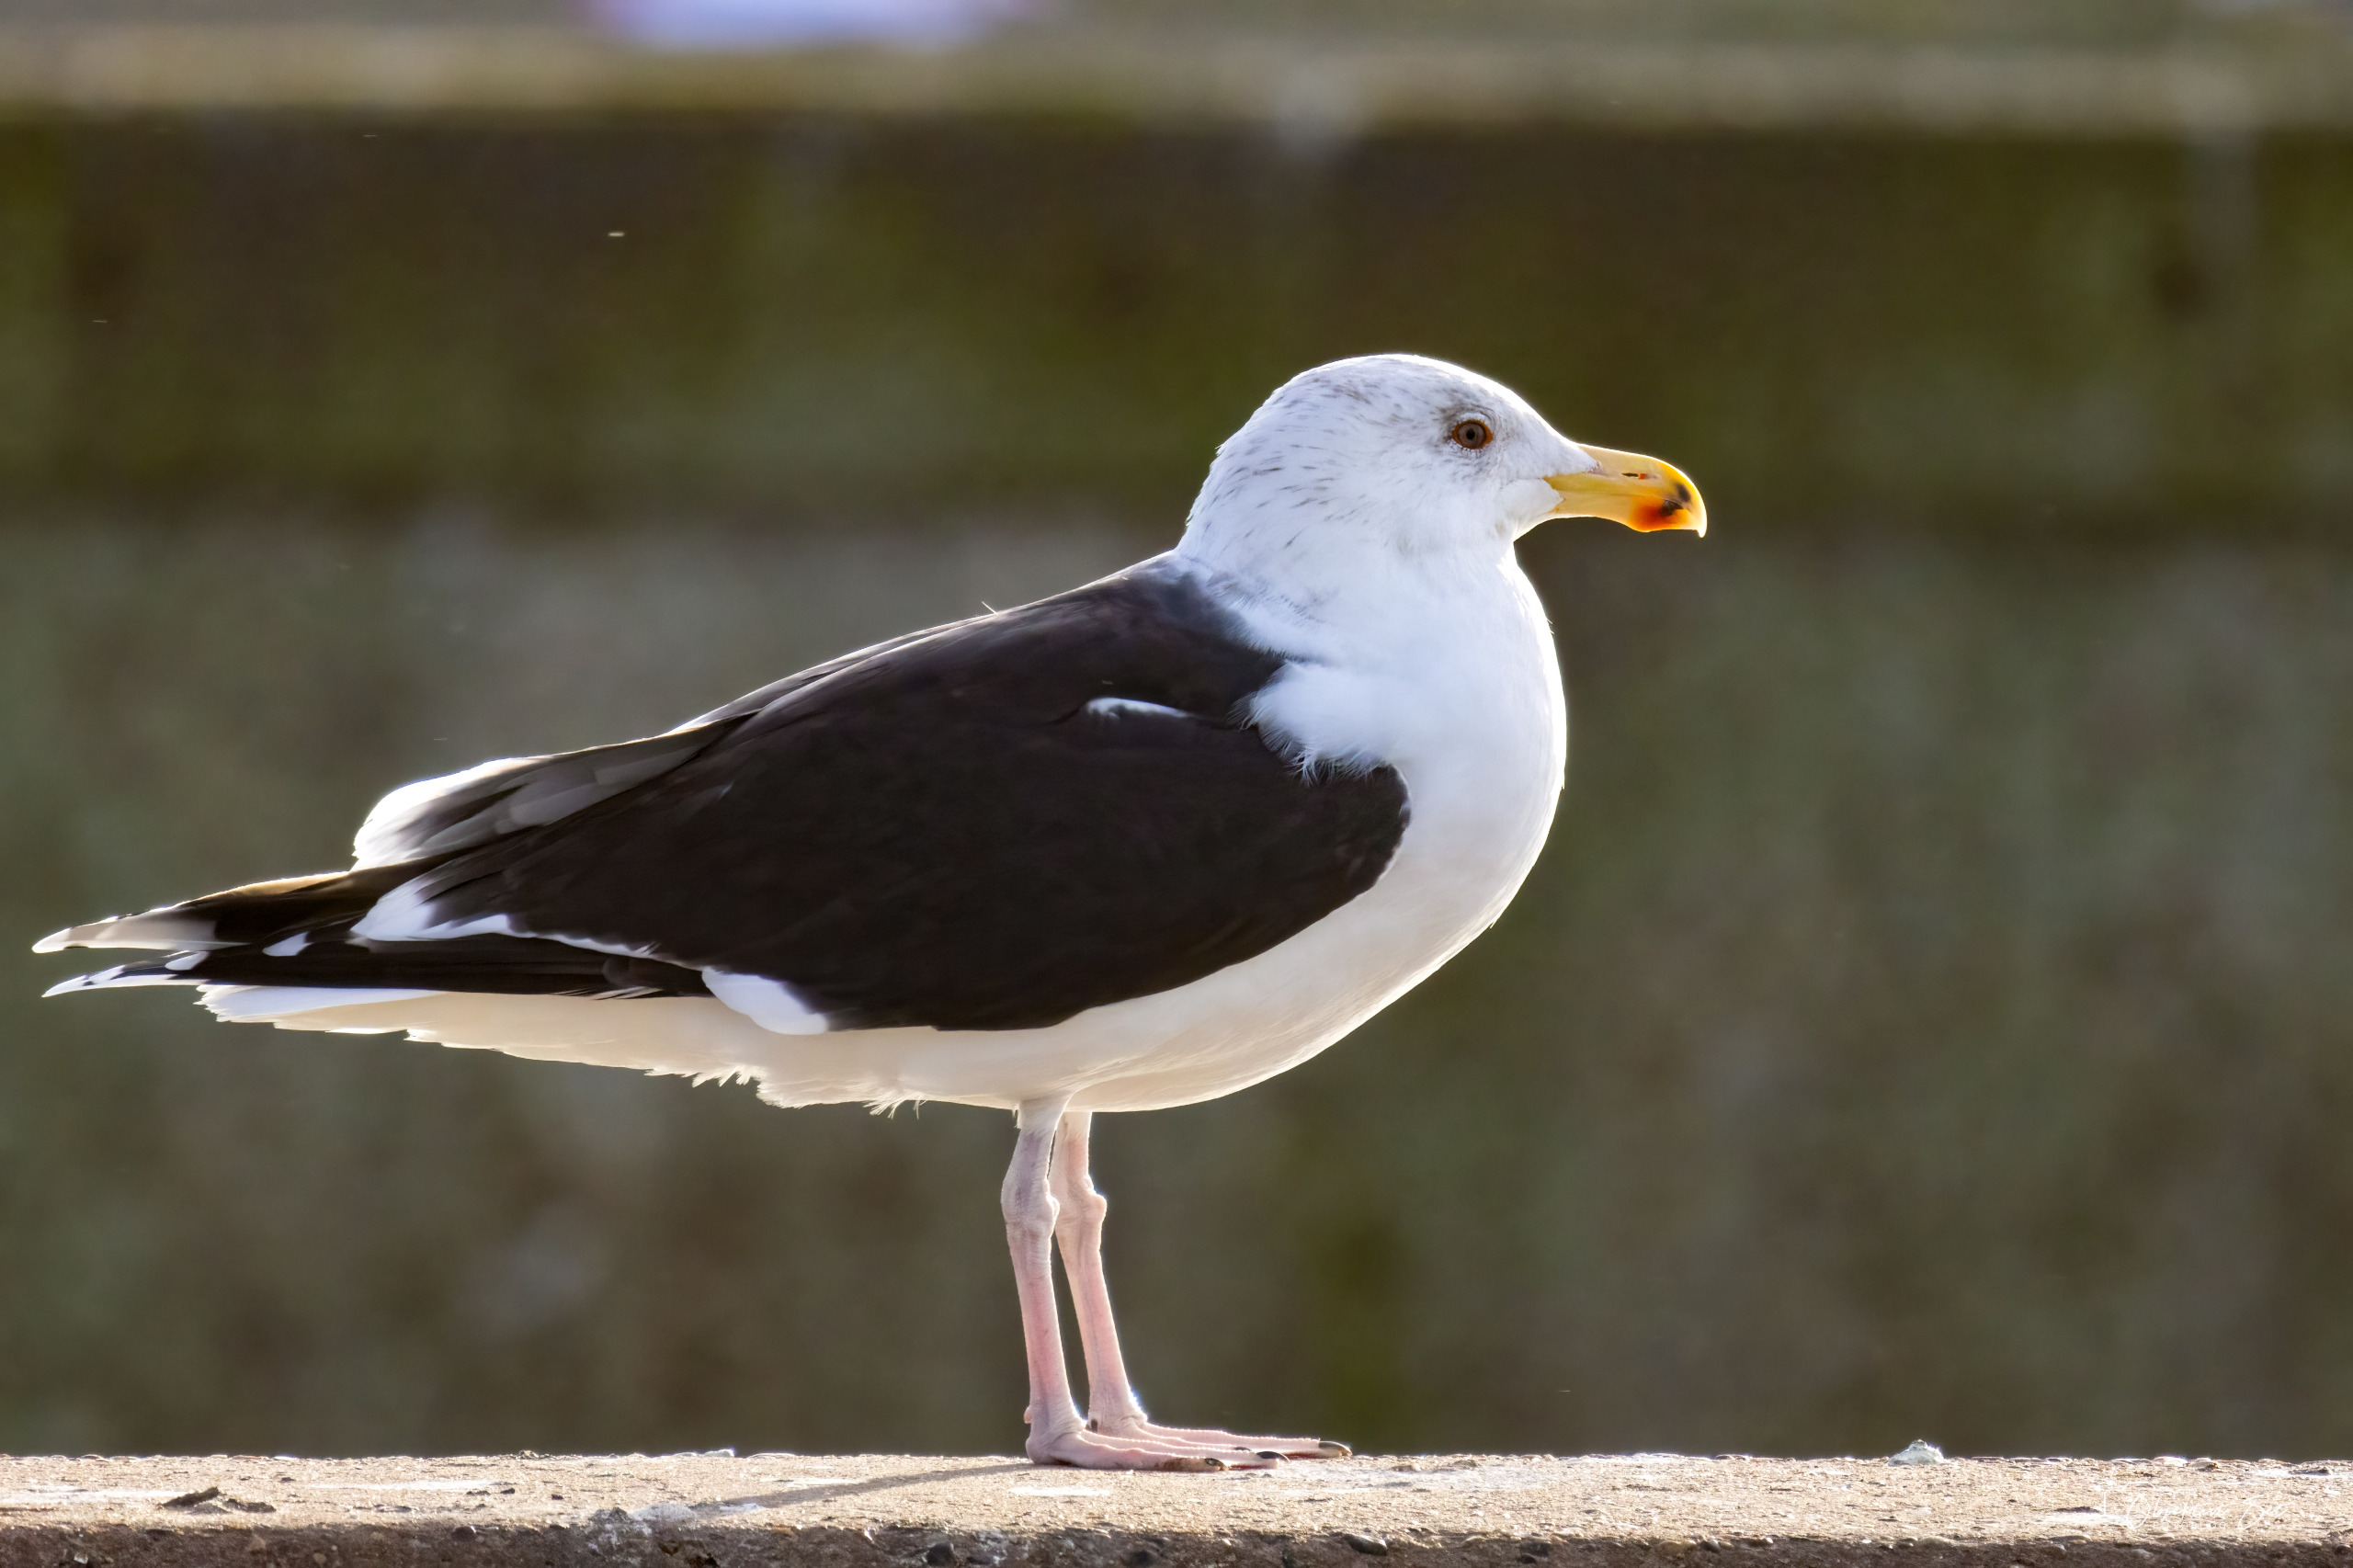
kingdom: Animalia
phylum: Chordata
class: Aves
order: Charadriiformes
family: Laridae
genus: Larus
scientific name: Larus marinus
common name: Svartbag
